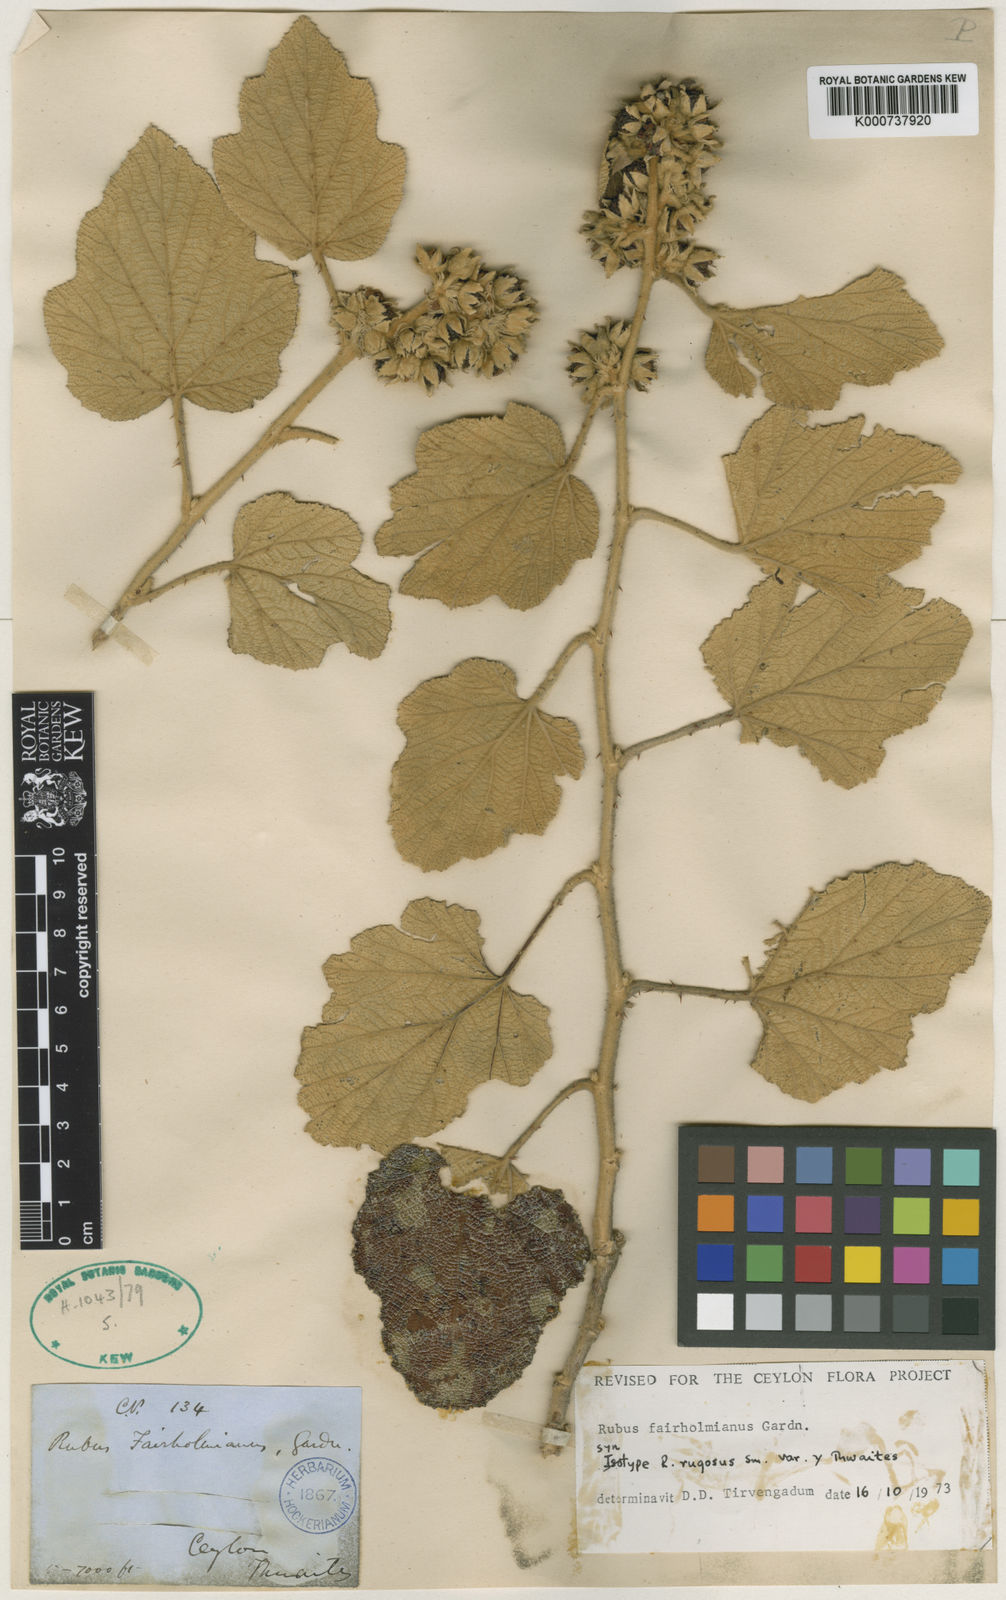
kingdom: Plantae
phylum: Tracheophyta
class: Magnoliopsida
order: Rosales
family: Rosaceae
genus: Rubus
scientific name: Rubus rugosus
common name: Himalayan blackberry
